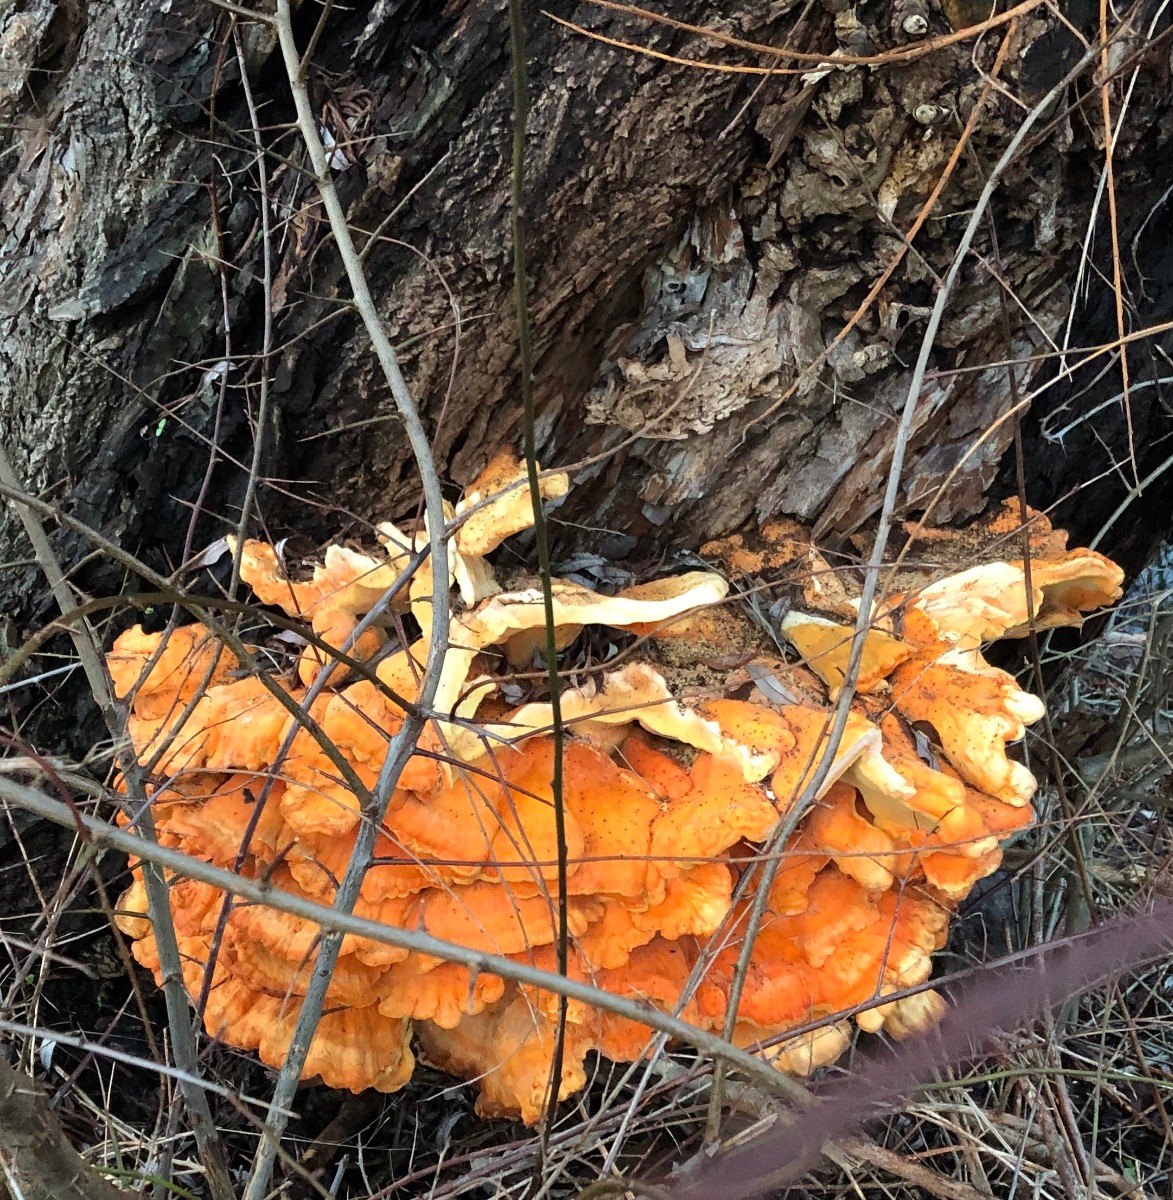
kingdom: Fungi
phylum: Basidiomycota
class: Agaricomycetes
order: Polyporales
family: Laetiporaceae
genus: Laetiporus
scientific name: Laetiporus sulphureus
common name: svovlporesvamp
